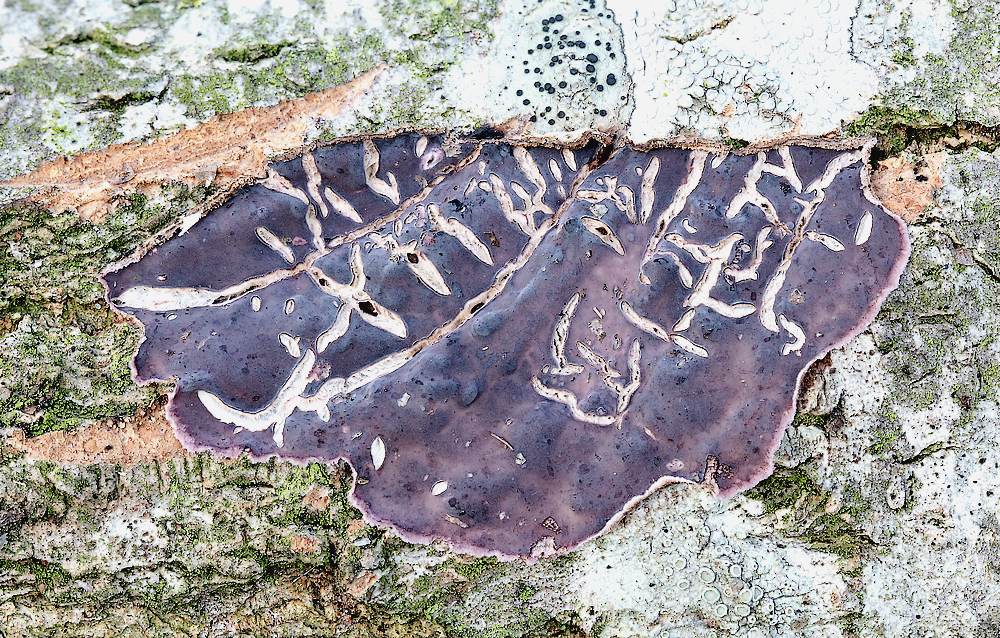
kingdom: Fungi
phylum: Basidiomycota
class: Agaricomycetes
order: Agaricales
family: Cyphellaceae
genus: Chondrostereum
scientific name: Chondrostereum purpureum
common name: purpurlædersvamp
